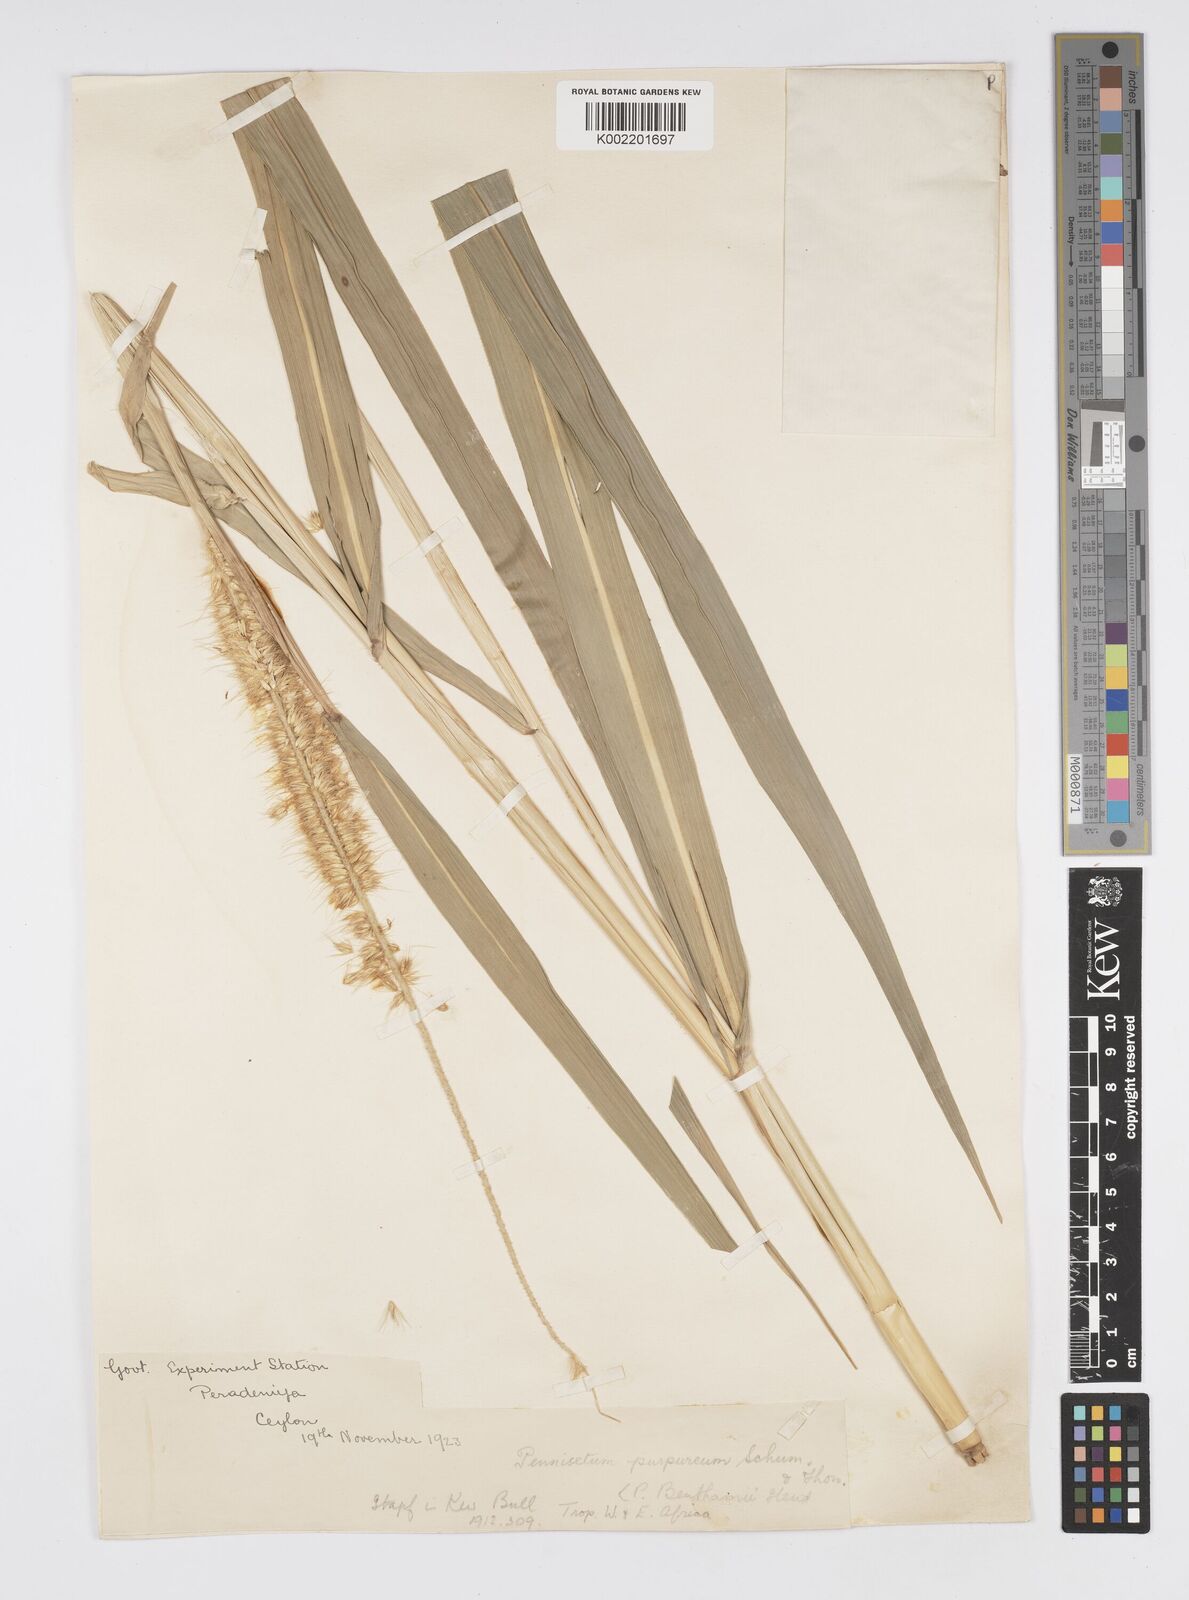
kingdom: Plantae
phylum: Tracheophyta
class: Liliopsida
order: Poales
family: Poaceae
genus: Cenchrus
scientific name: Cenchrus purpureus
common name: Elephant grass
